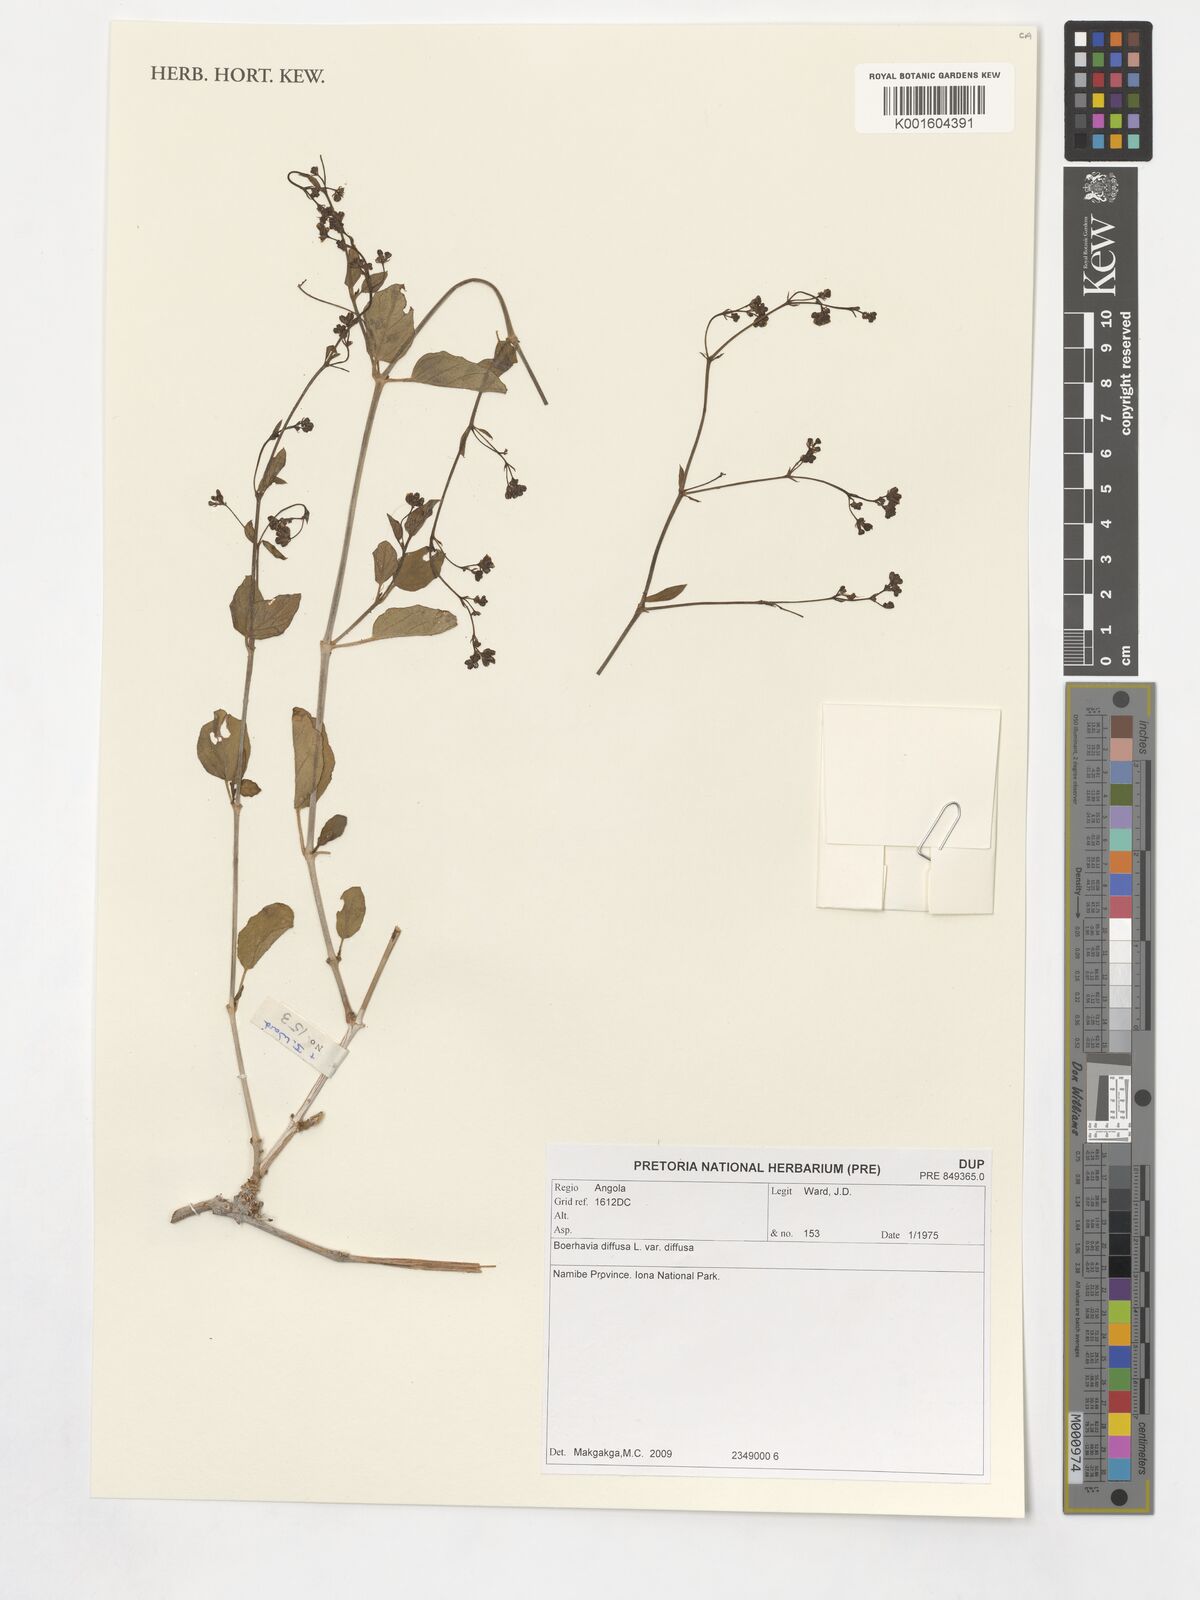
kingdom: Plantae
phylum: Tracheophyta
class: Magnoliopsida
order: Caryophyllales
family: Nyctaginaceae
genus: Boerhavia
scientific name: Boerhavia diffusa
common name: Red spiderling
